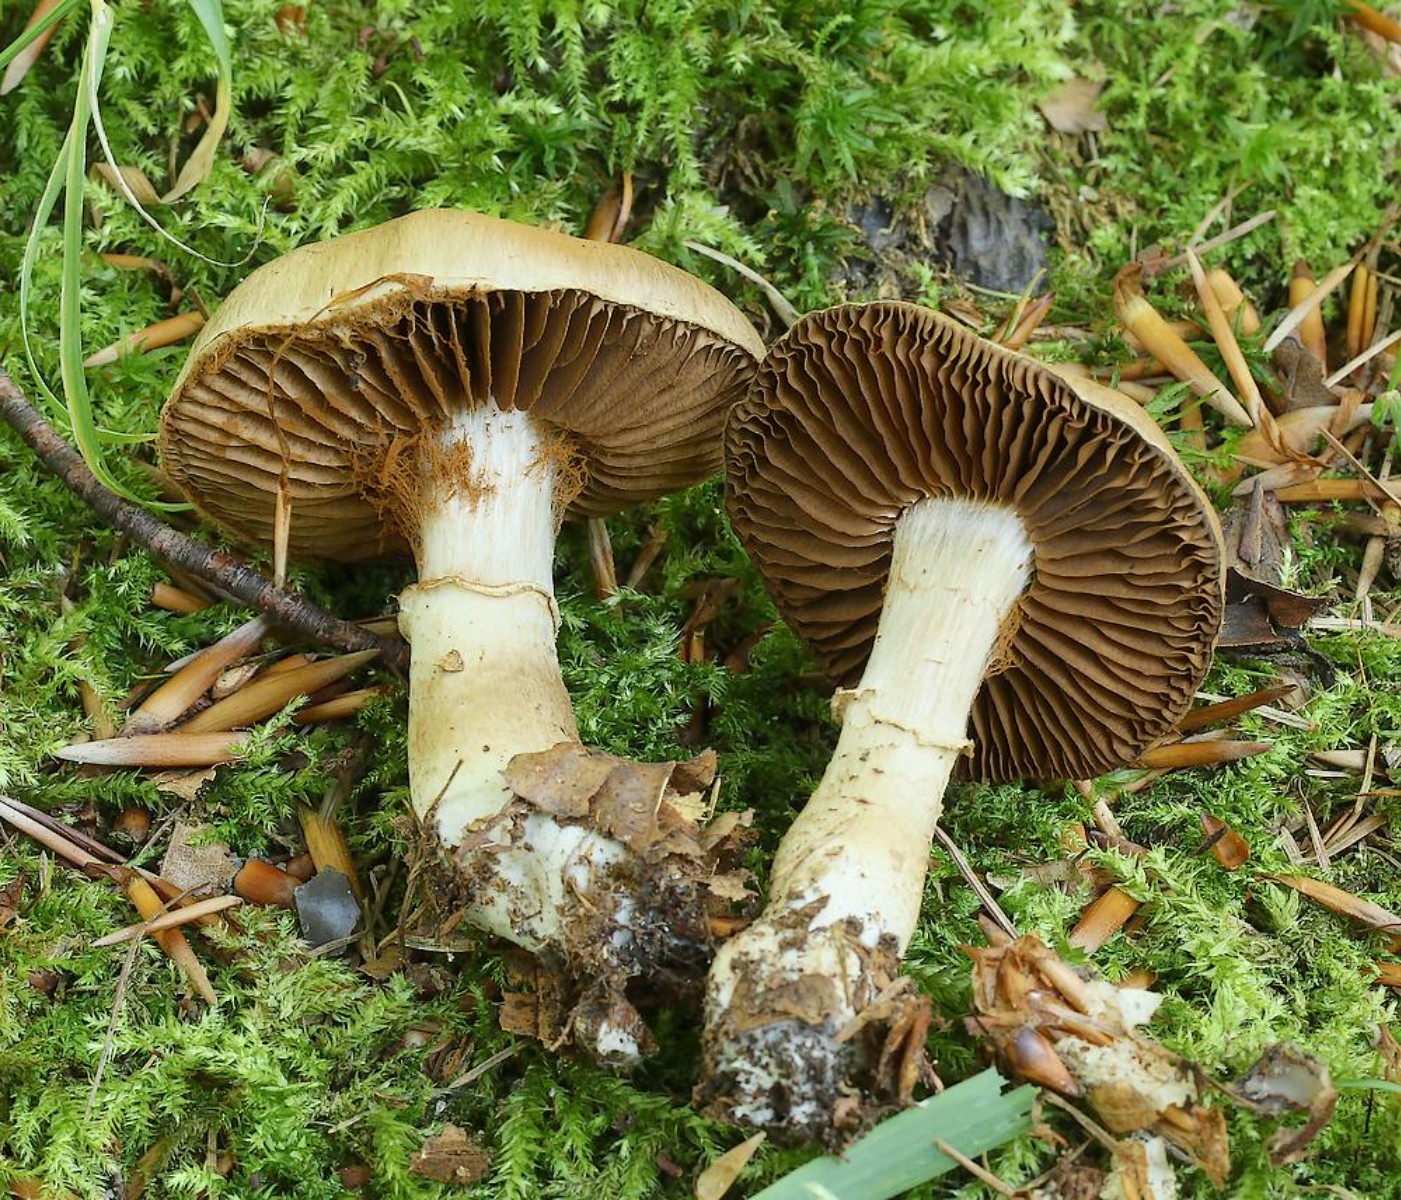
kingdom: Fungi
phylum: Basidiomycota
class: Agaricomycetes
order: Agaricales
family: Cortinariaceae
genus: Cortinarius
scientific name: Cortinarius torvus
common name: champignonagtig slørhat
